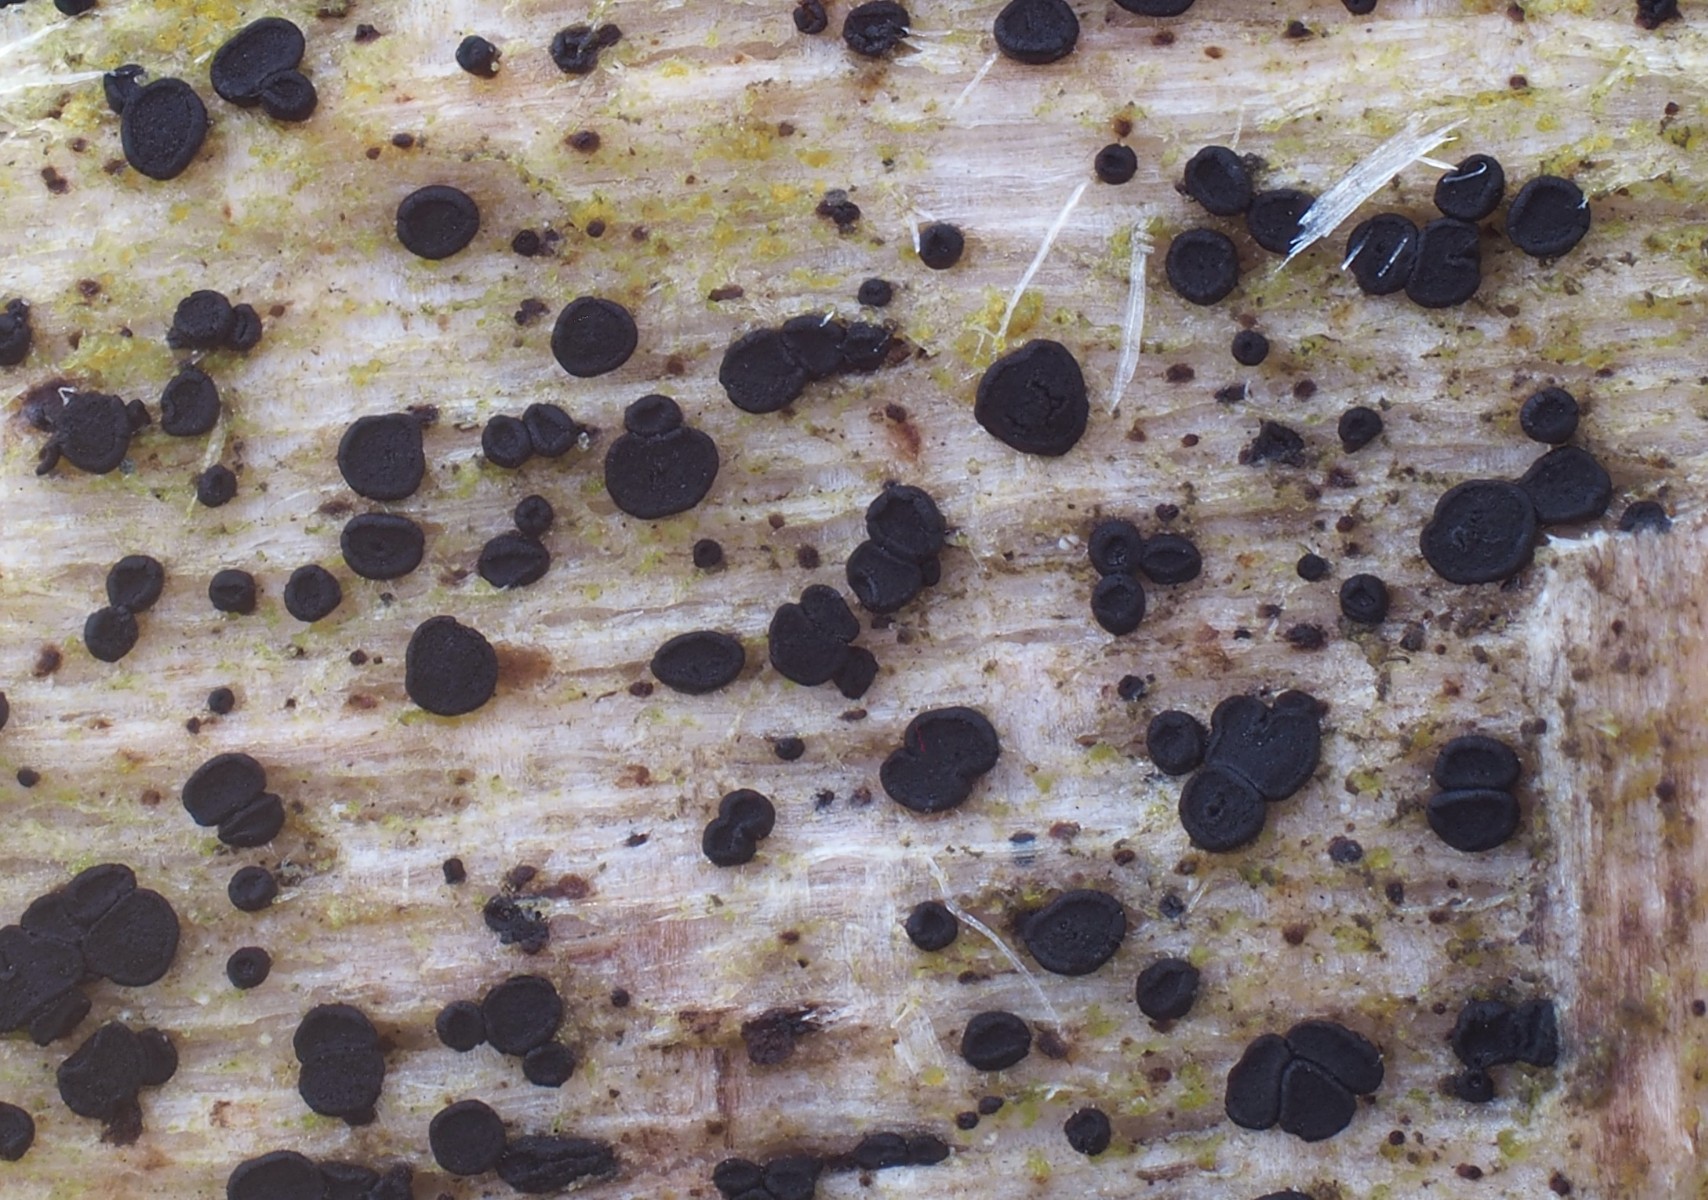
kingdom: Fungi
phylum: Ascomycota
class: Leotiomycetes
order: Helotiales
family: Helotiaceae
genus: Durella
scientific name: Durella macrospora
